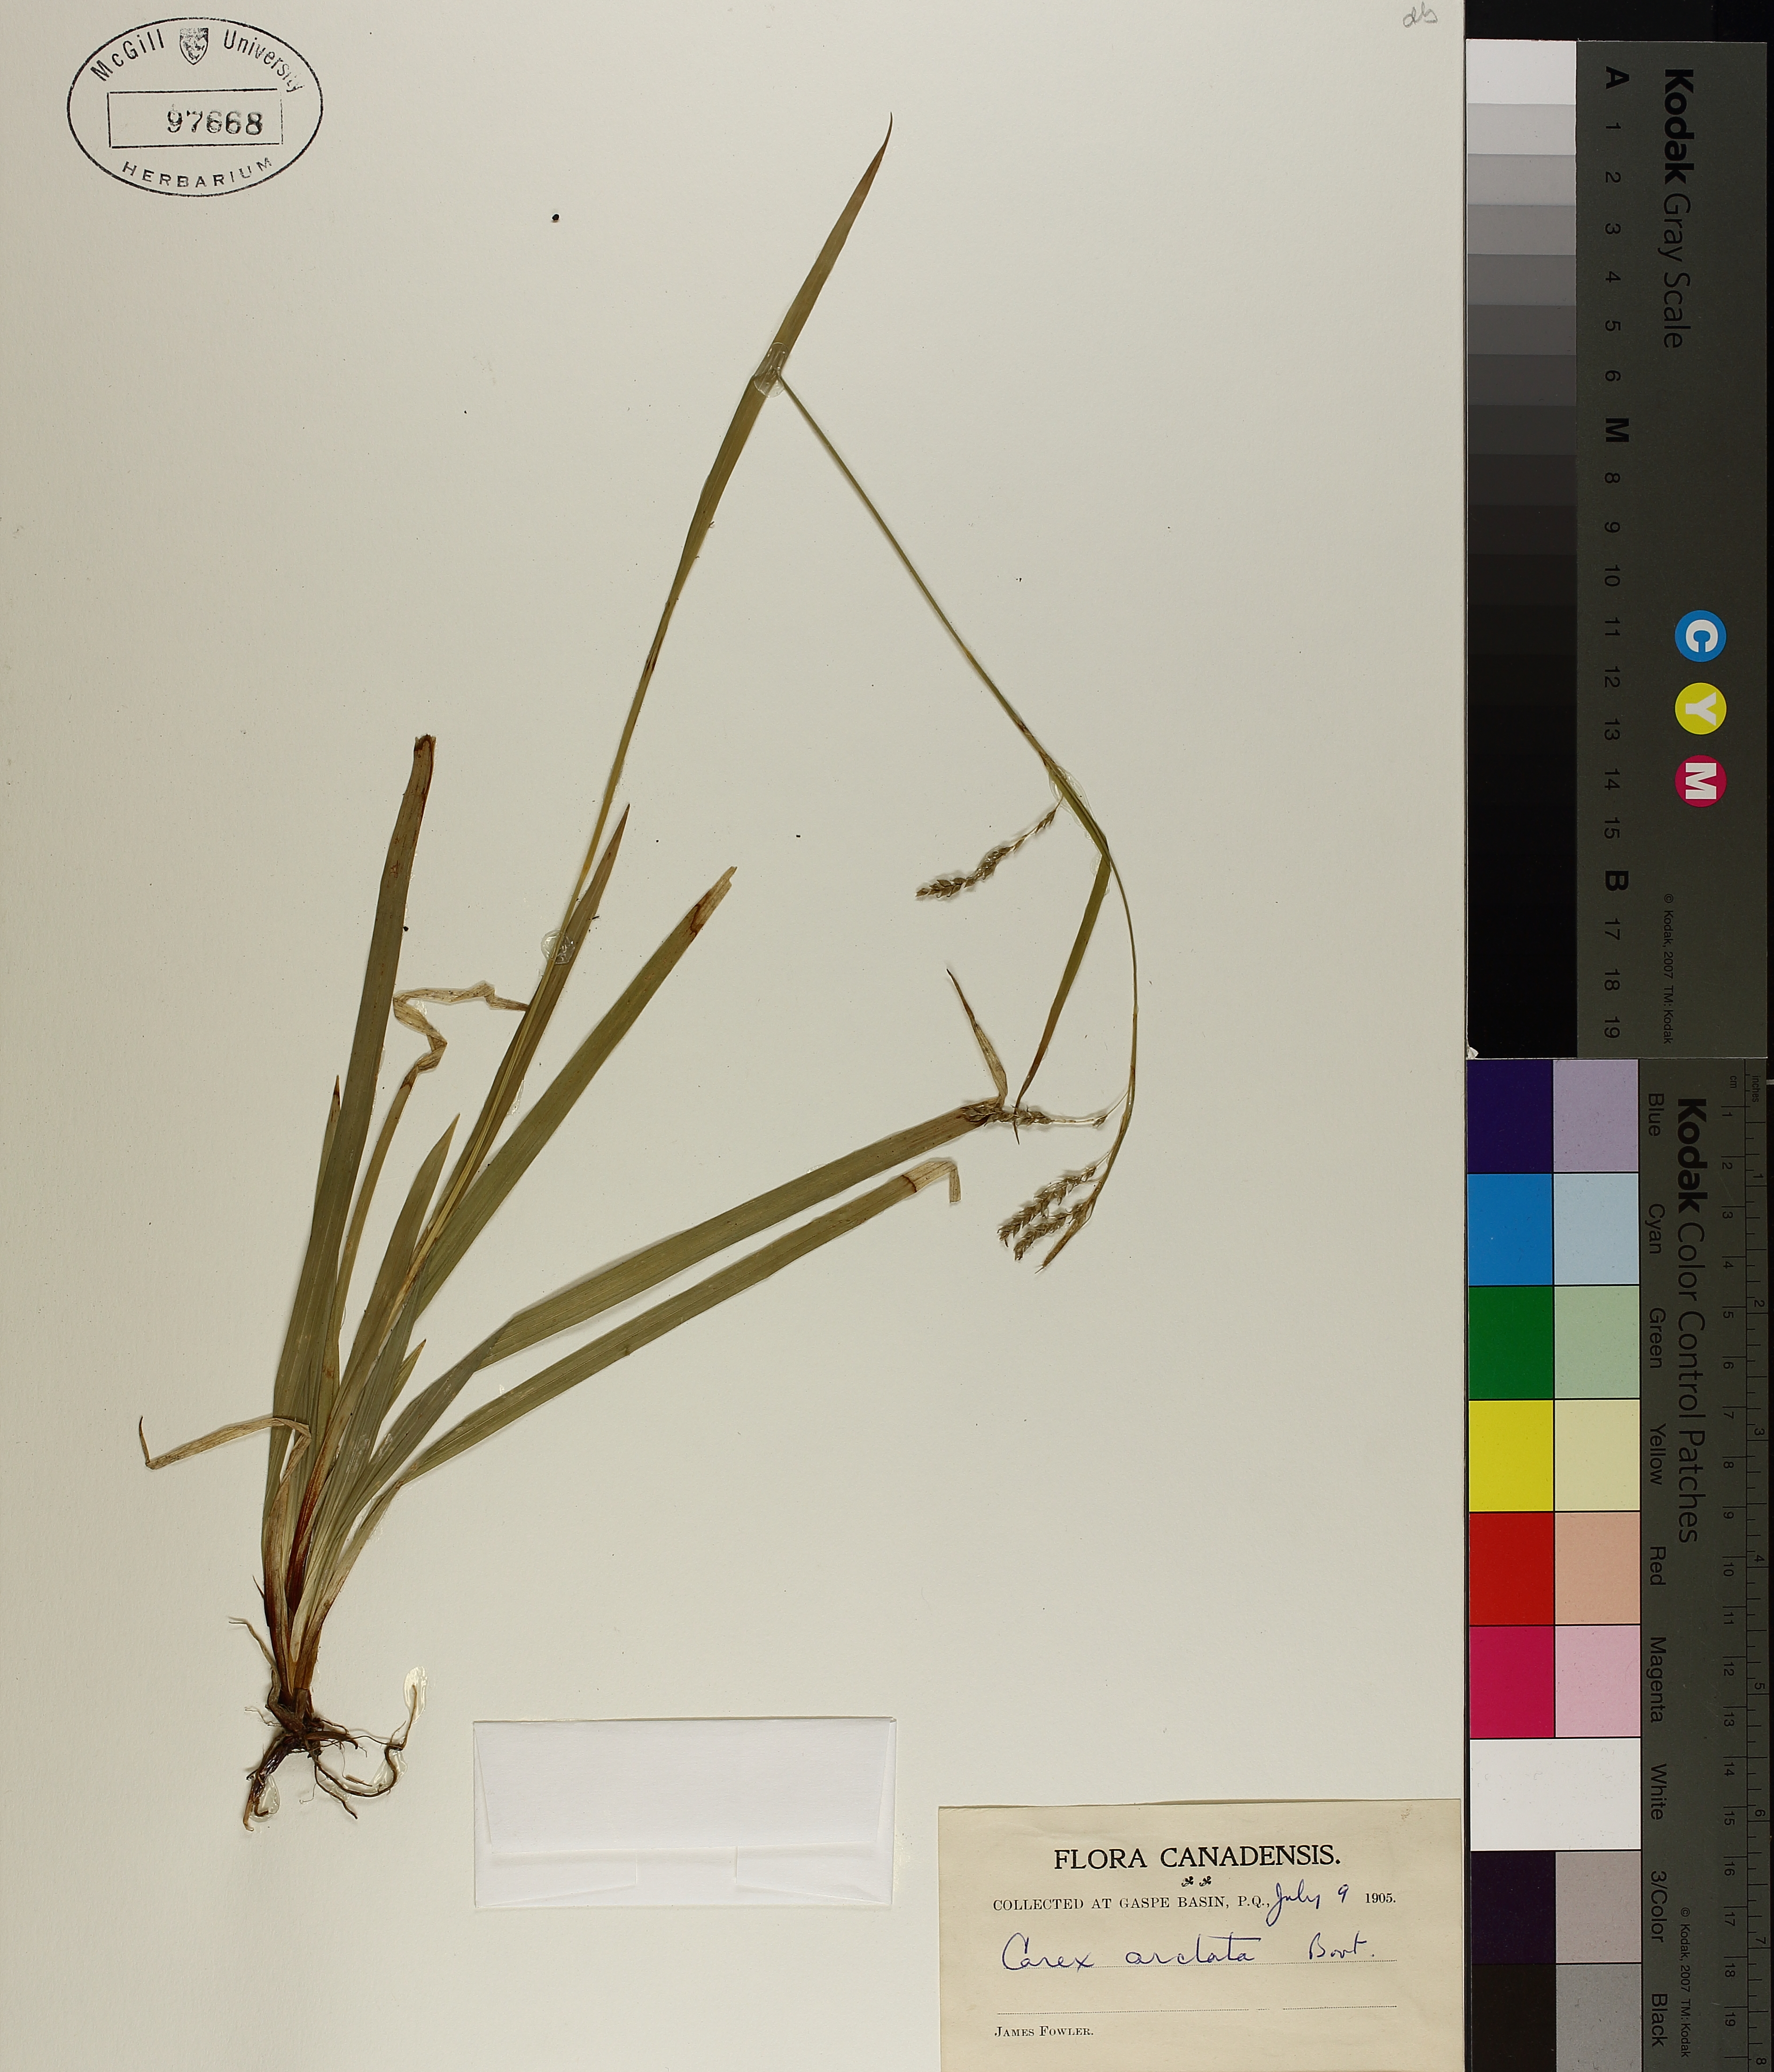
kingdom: Plantae
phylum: Tracheophyta
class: Liliopsida
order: Poales
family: Cyperaceae
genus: Carex
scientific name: Carex arctata
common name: Black sedge
